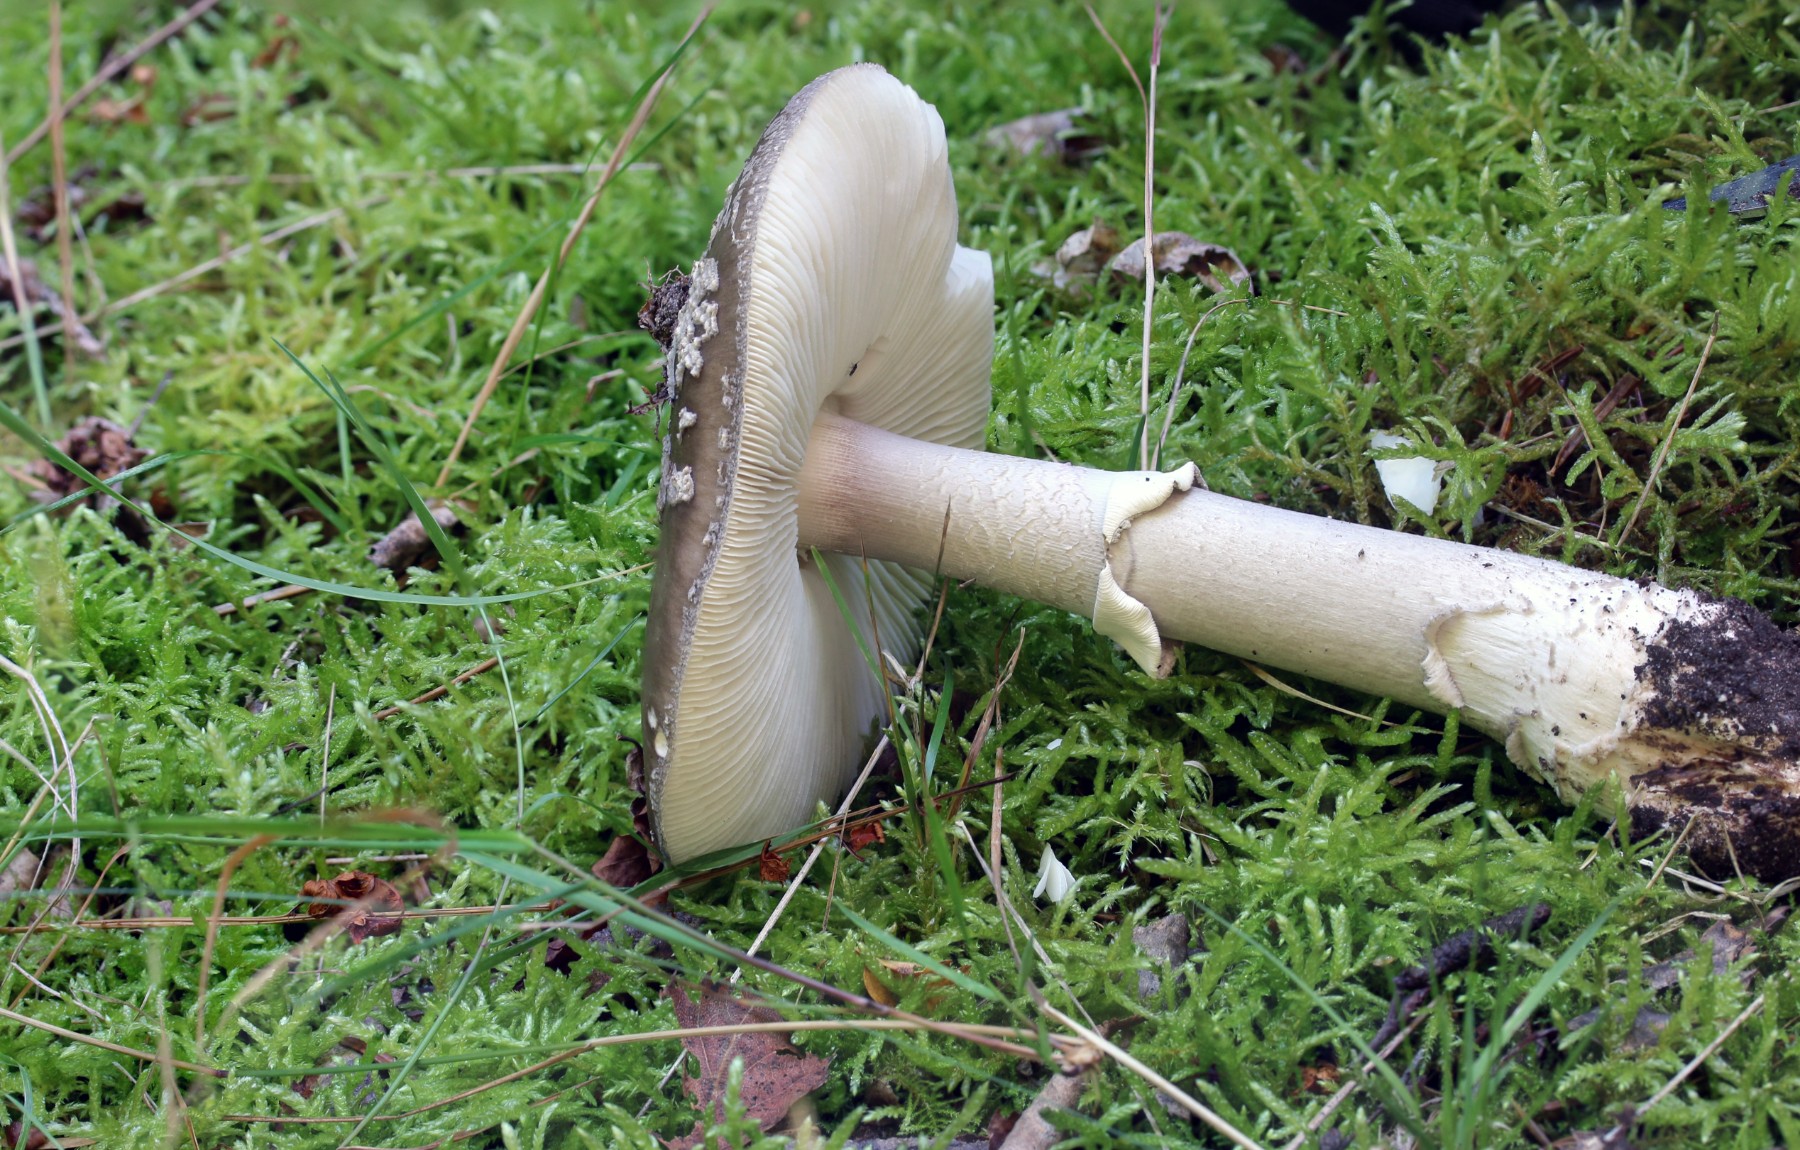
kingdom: Fungi
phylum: Basidiomycota
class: Agaricomycetes
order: Agaricales
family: Amanitaceae
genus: Amanita
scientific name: Amanita
